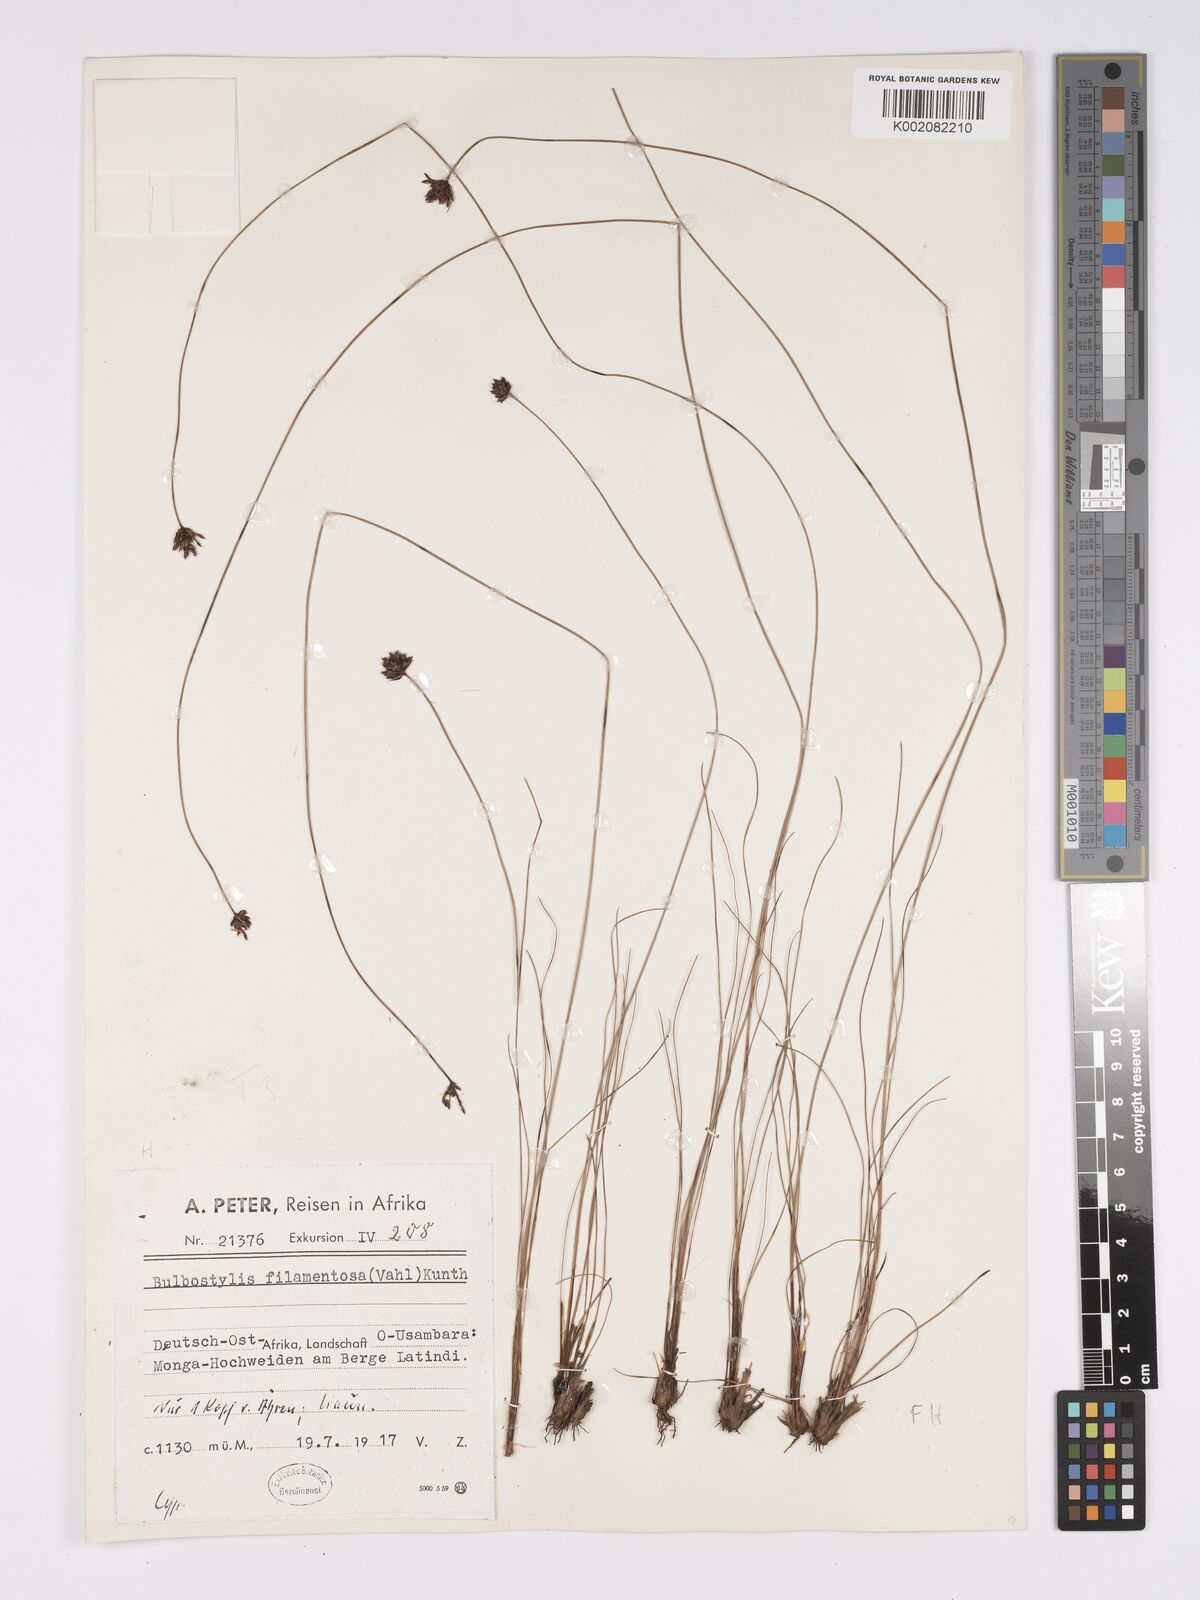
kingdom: Plantae
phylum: Tracheophyta
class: Liliopsida
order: Poales
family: Cyperaceae
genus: Bulbostylis
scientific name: Bulbostylis filamentosa
